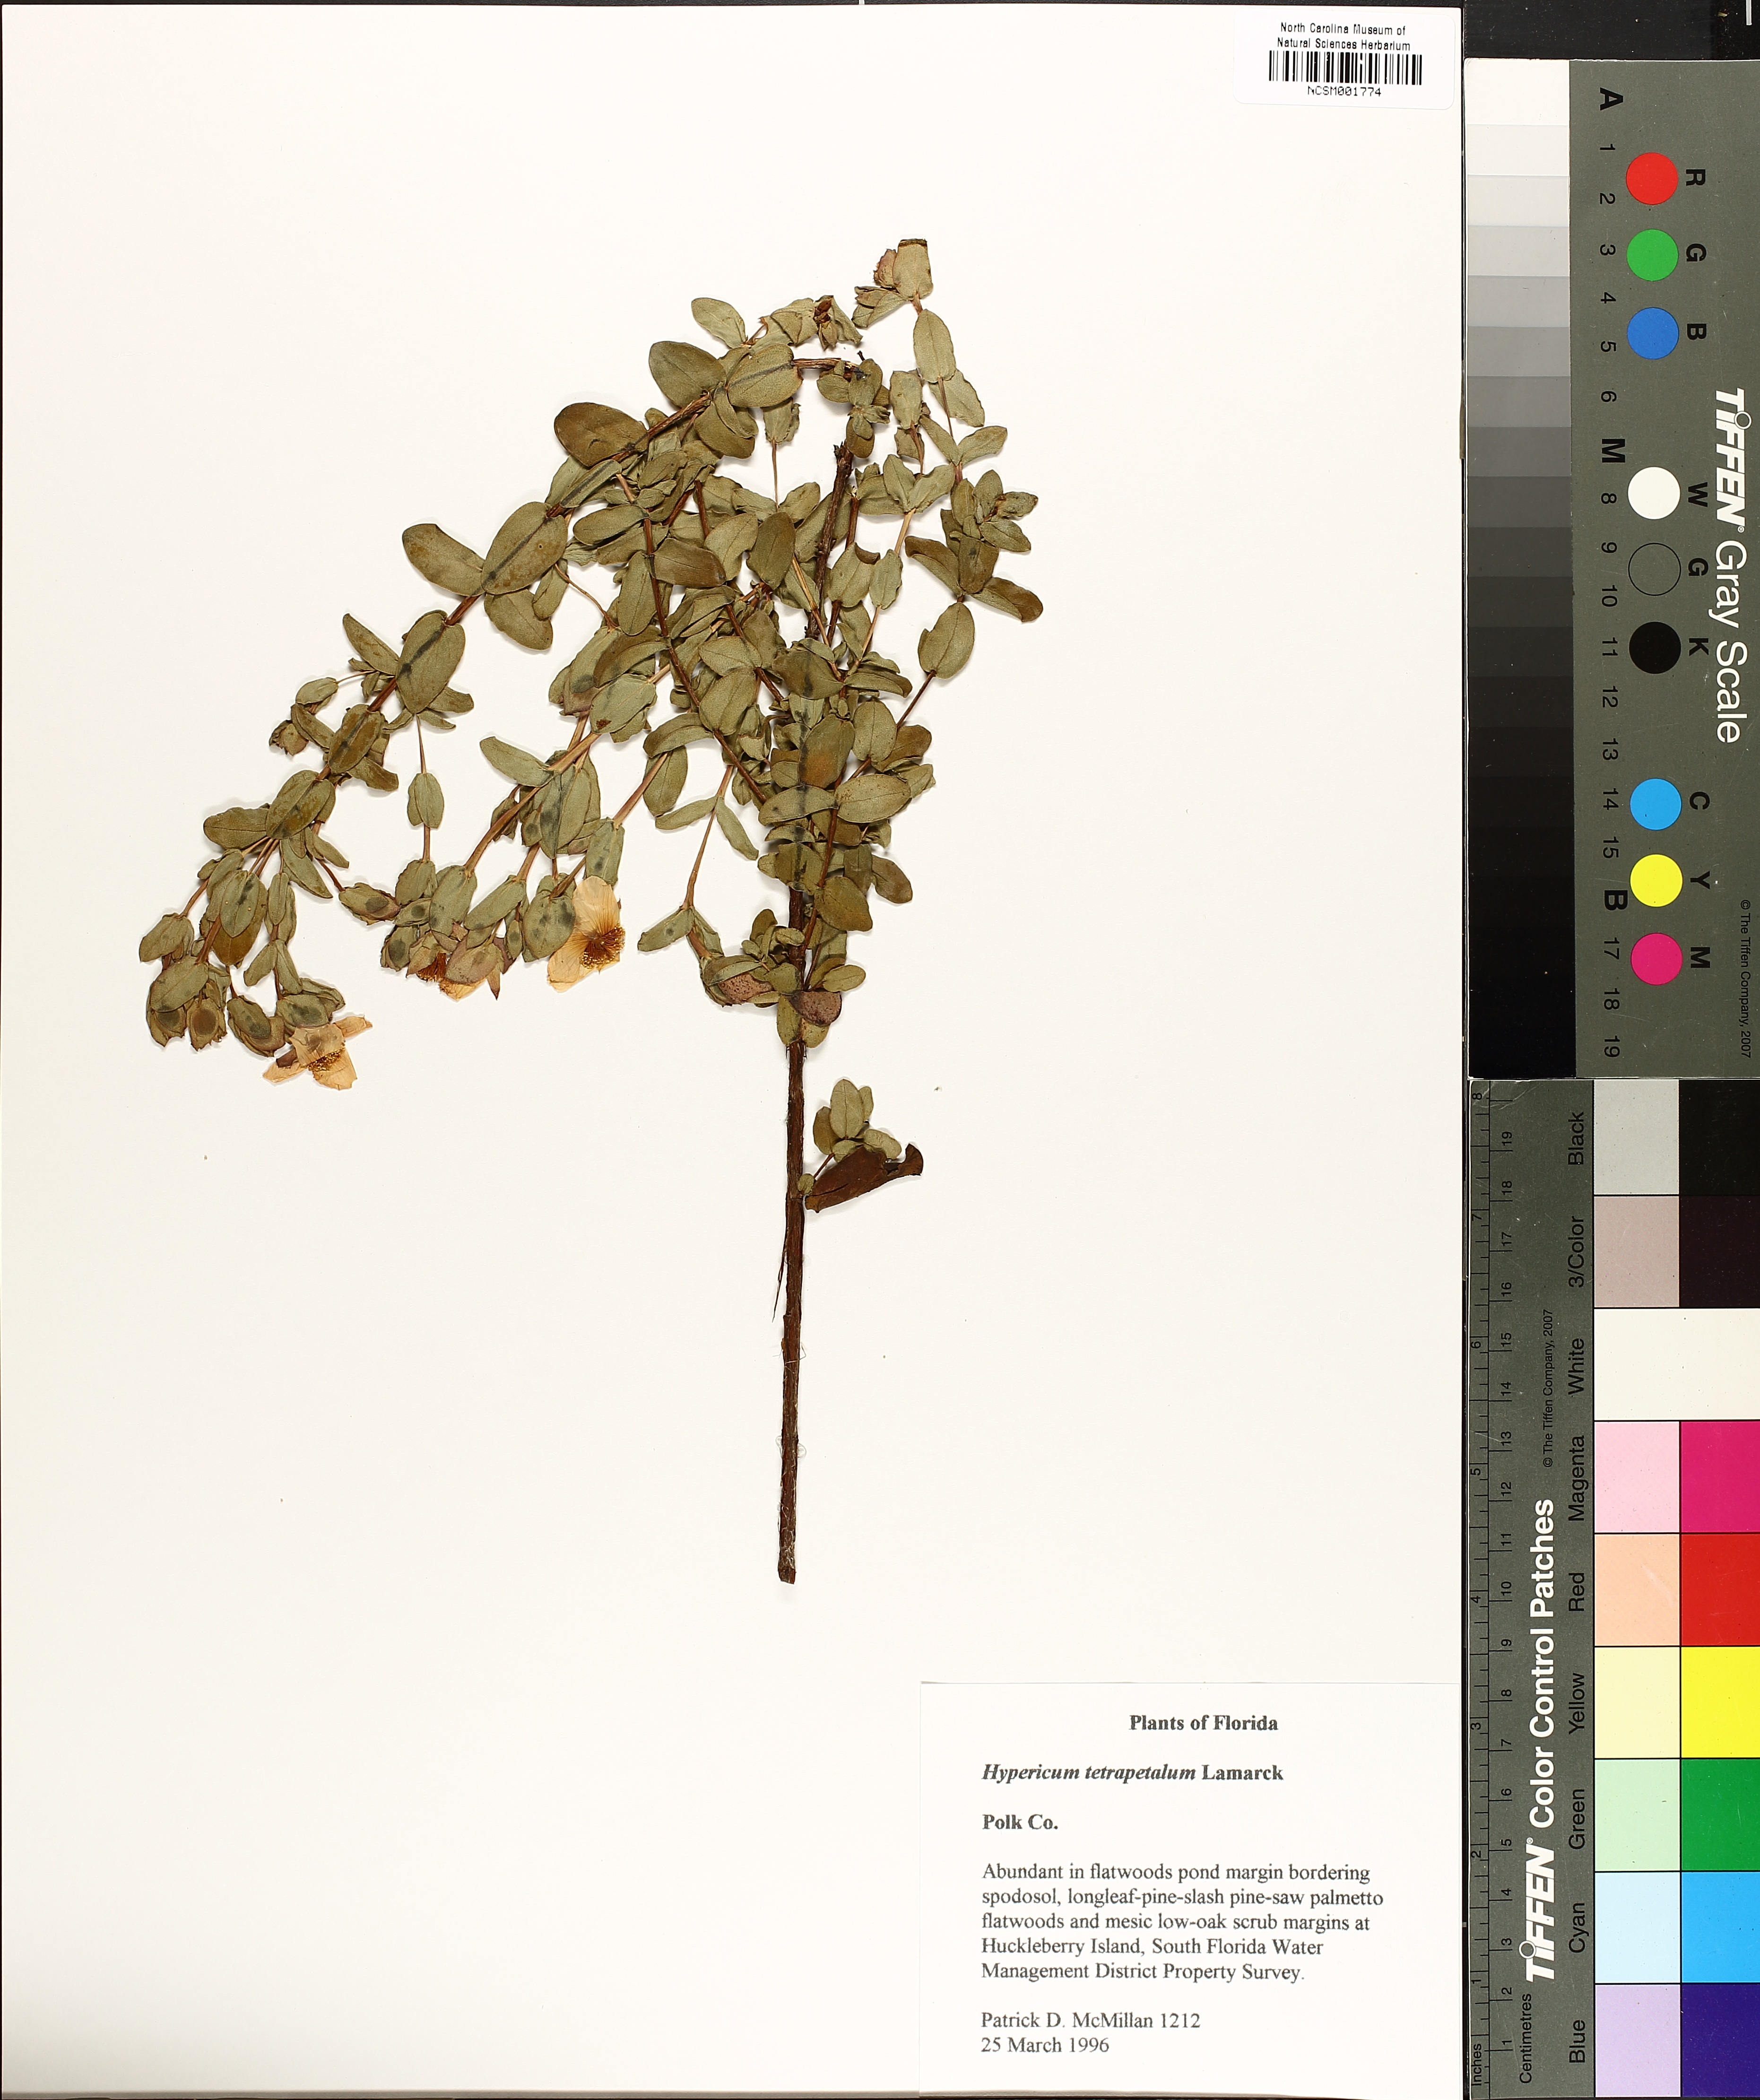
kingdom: Plantae
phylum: Tracheophyta
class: Magnoliopsida
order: Malpighiales
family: Hypericaceae
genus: Hypericum
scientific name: Hypericum tetrapetalum
